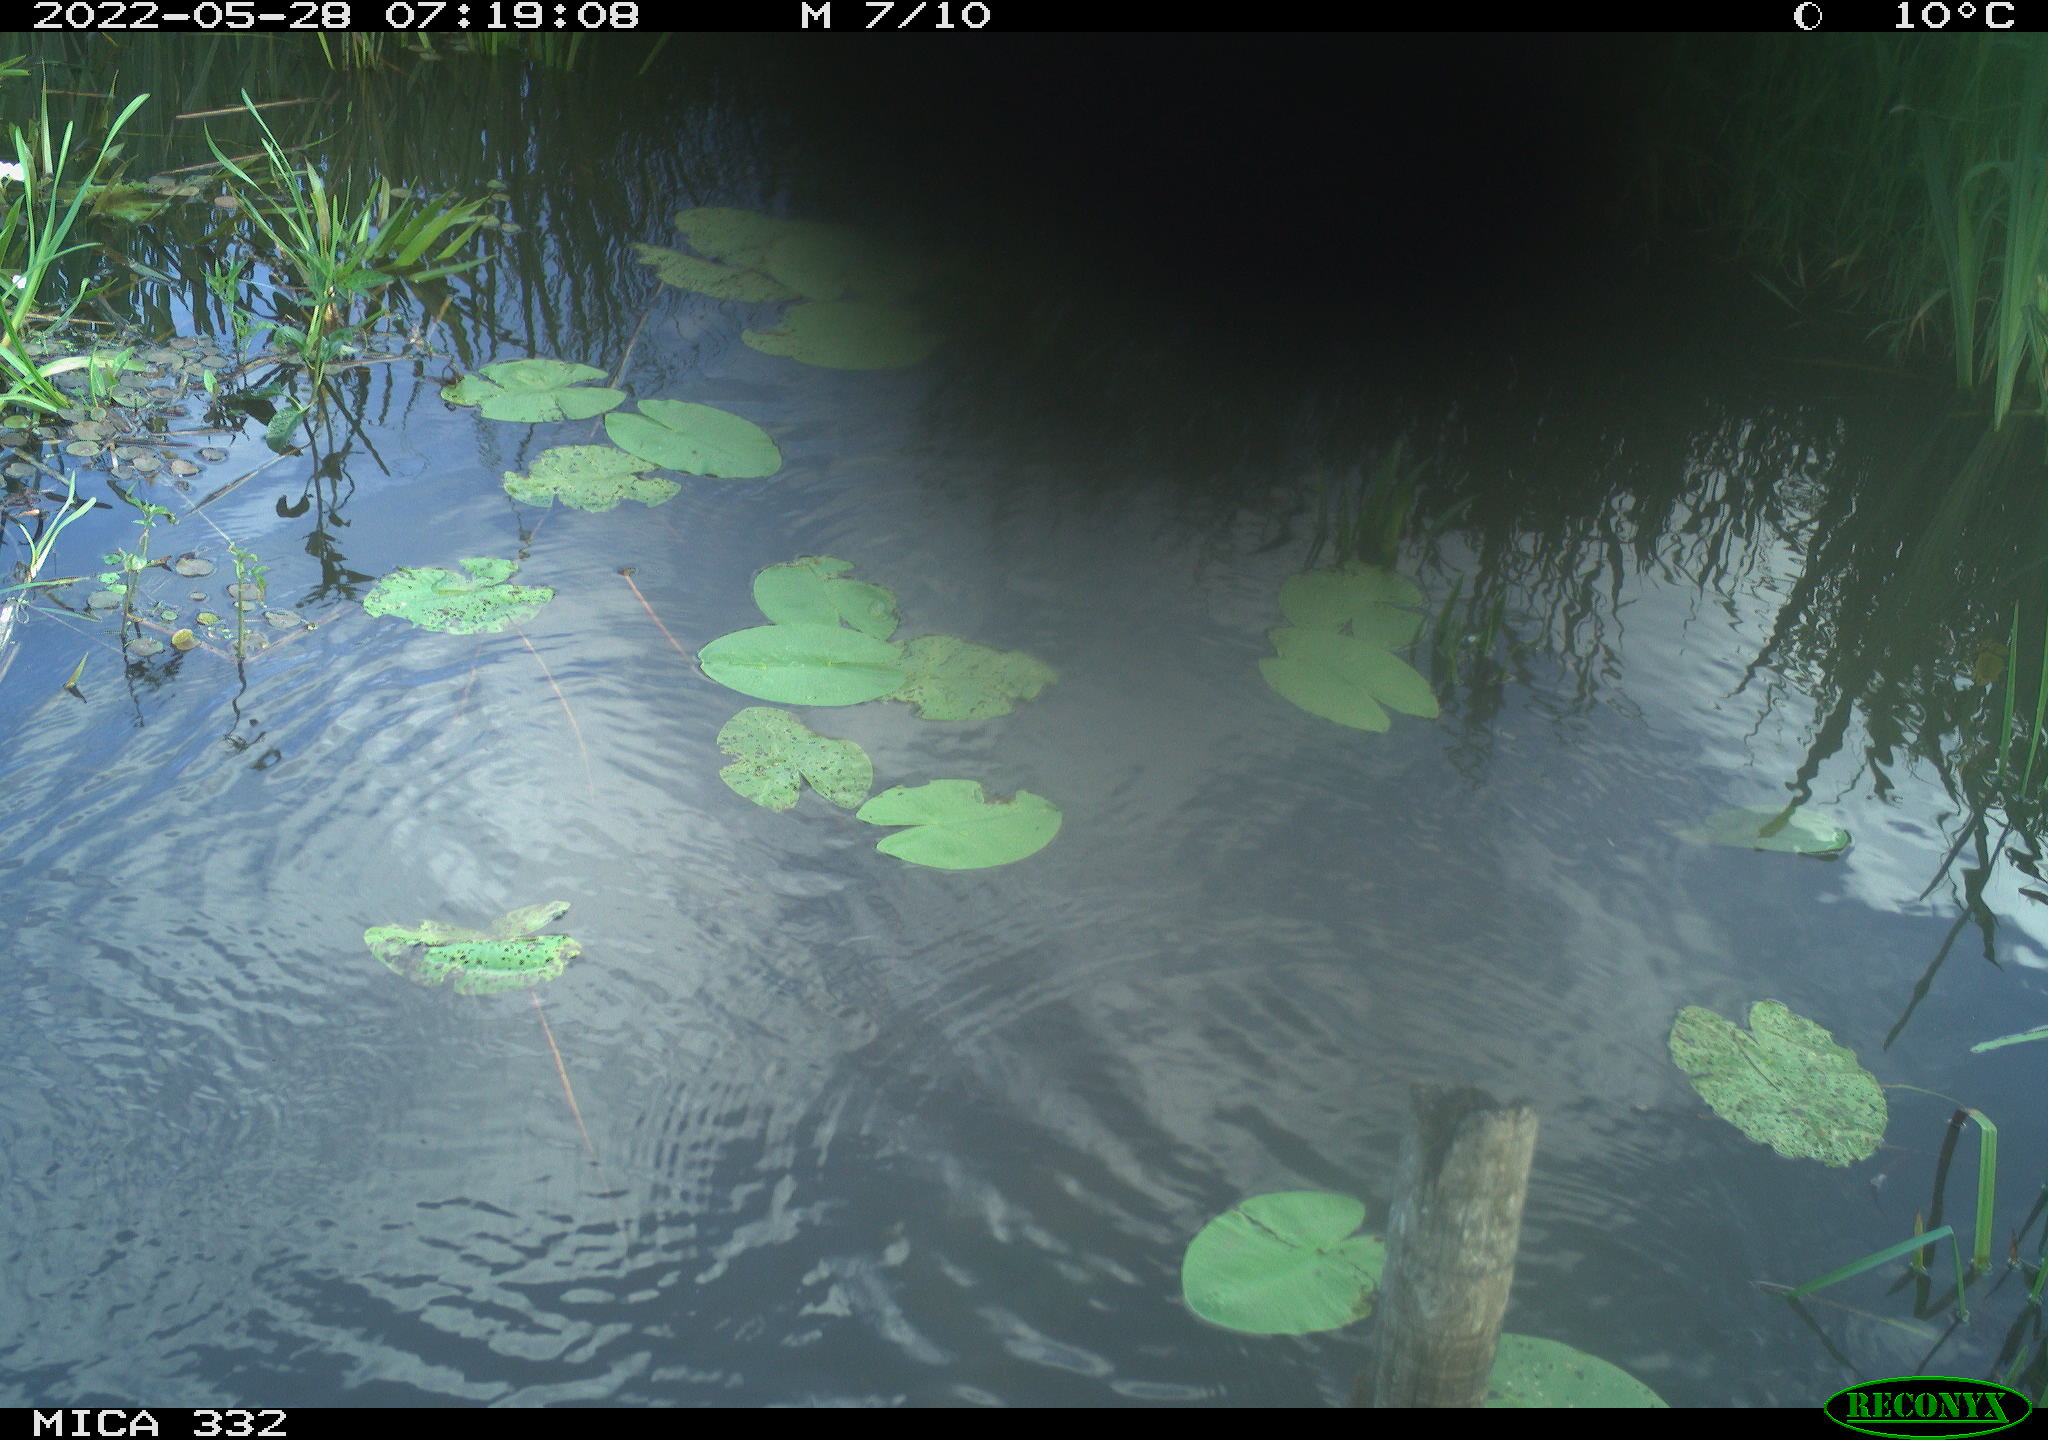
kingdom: Animalia
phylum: Chordata
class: Aves
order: Anseriformes
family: Anatidae
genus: Anas
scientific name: Anas platyrhynchos
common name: Mallard
